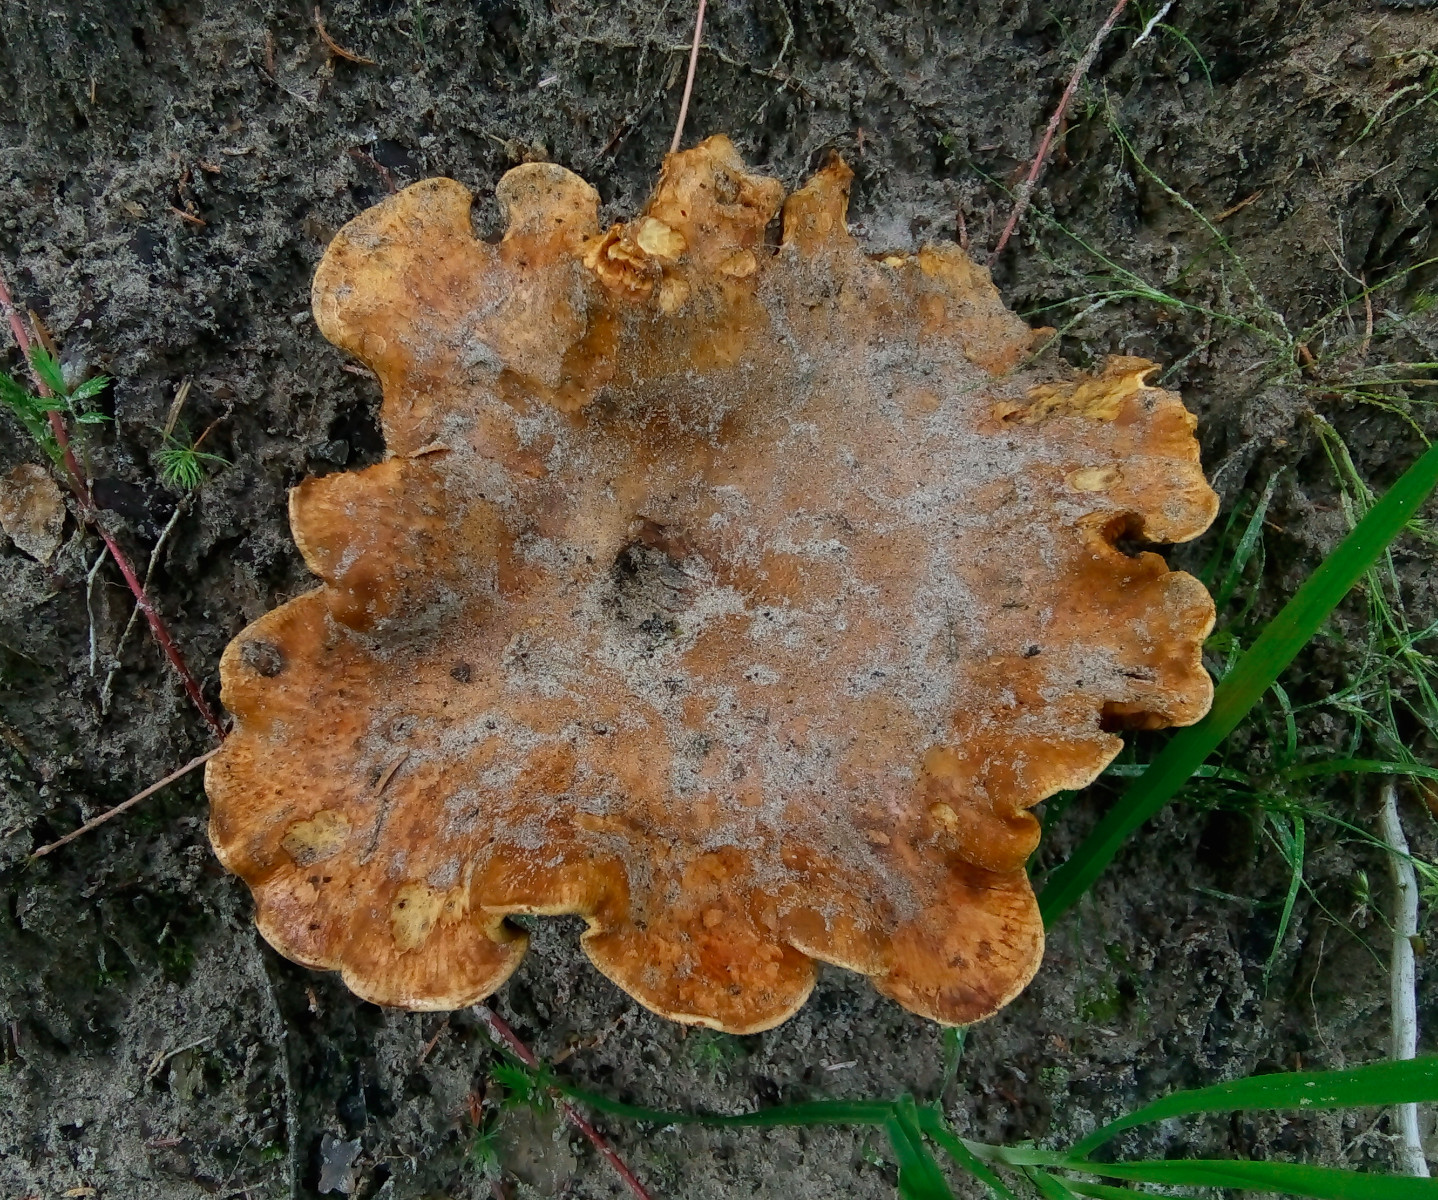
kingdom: Fungi
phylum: Basidiomycota
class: Agaricomycetes
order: Boletales
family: Tapinellaceae
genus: Tapinella
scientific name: Tapinella atrotomentosa
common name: sortfiltet viftesvamp
